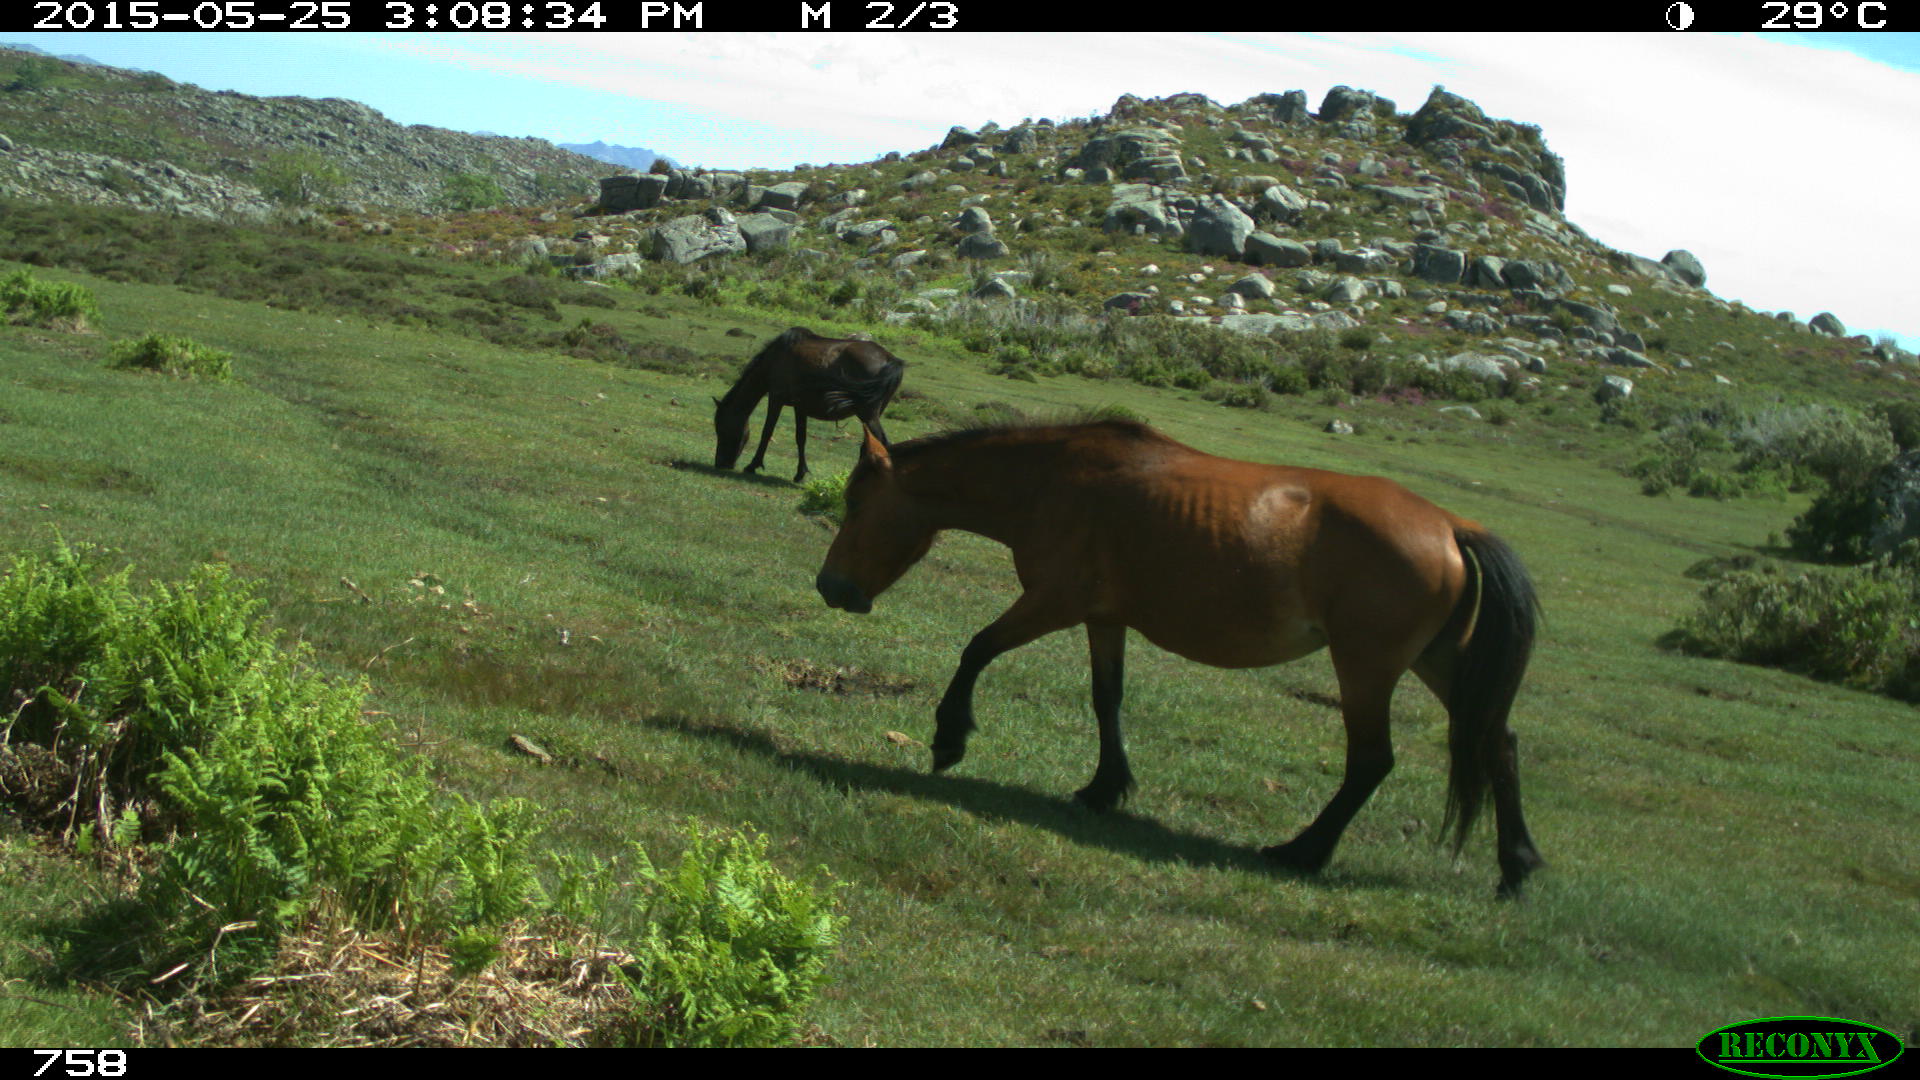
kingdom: Animalia
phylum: Chordata
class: Mammalia
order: Perissodactyla
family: Equidae
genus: Equus
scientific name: Equus caballus
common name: Horse
